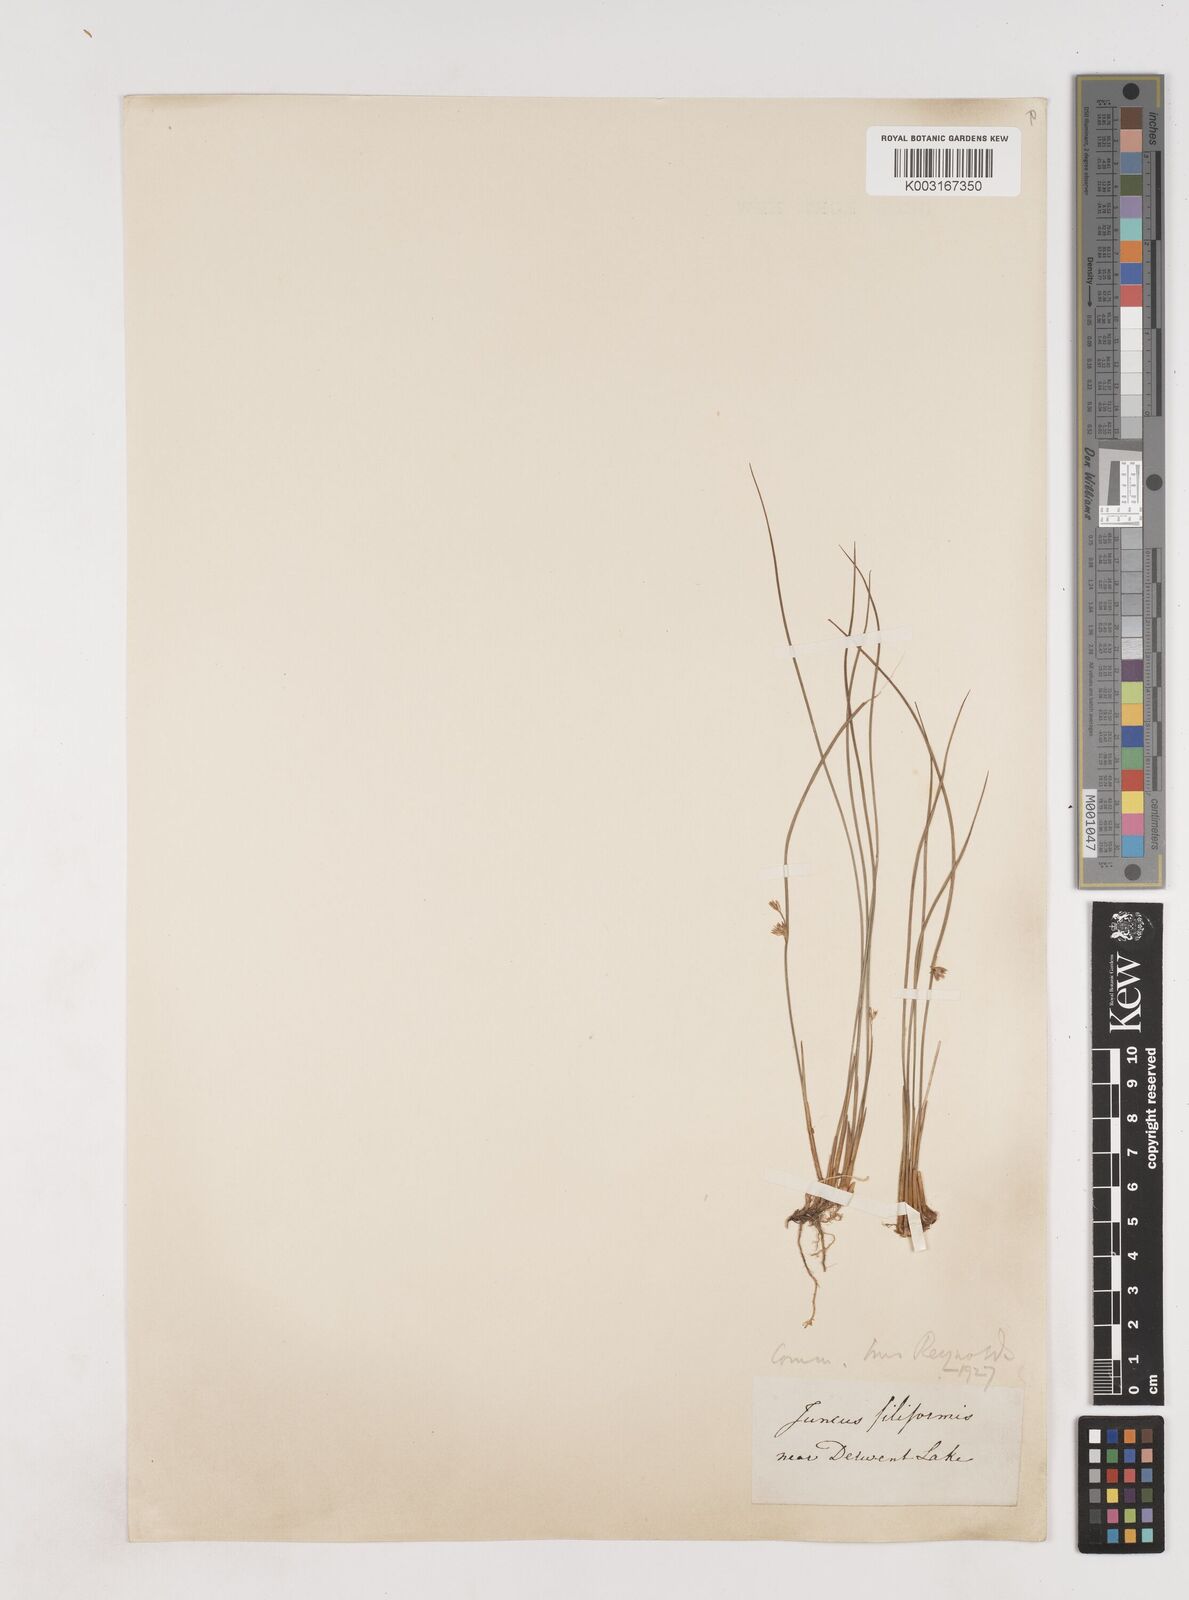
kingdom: Plantae
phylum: Tracheophyta
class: Liliopsida
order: Poales
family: Juncaceae
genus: Juncus
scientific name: Juncus filiformis
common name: Thread rush
